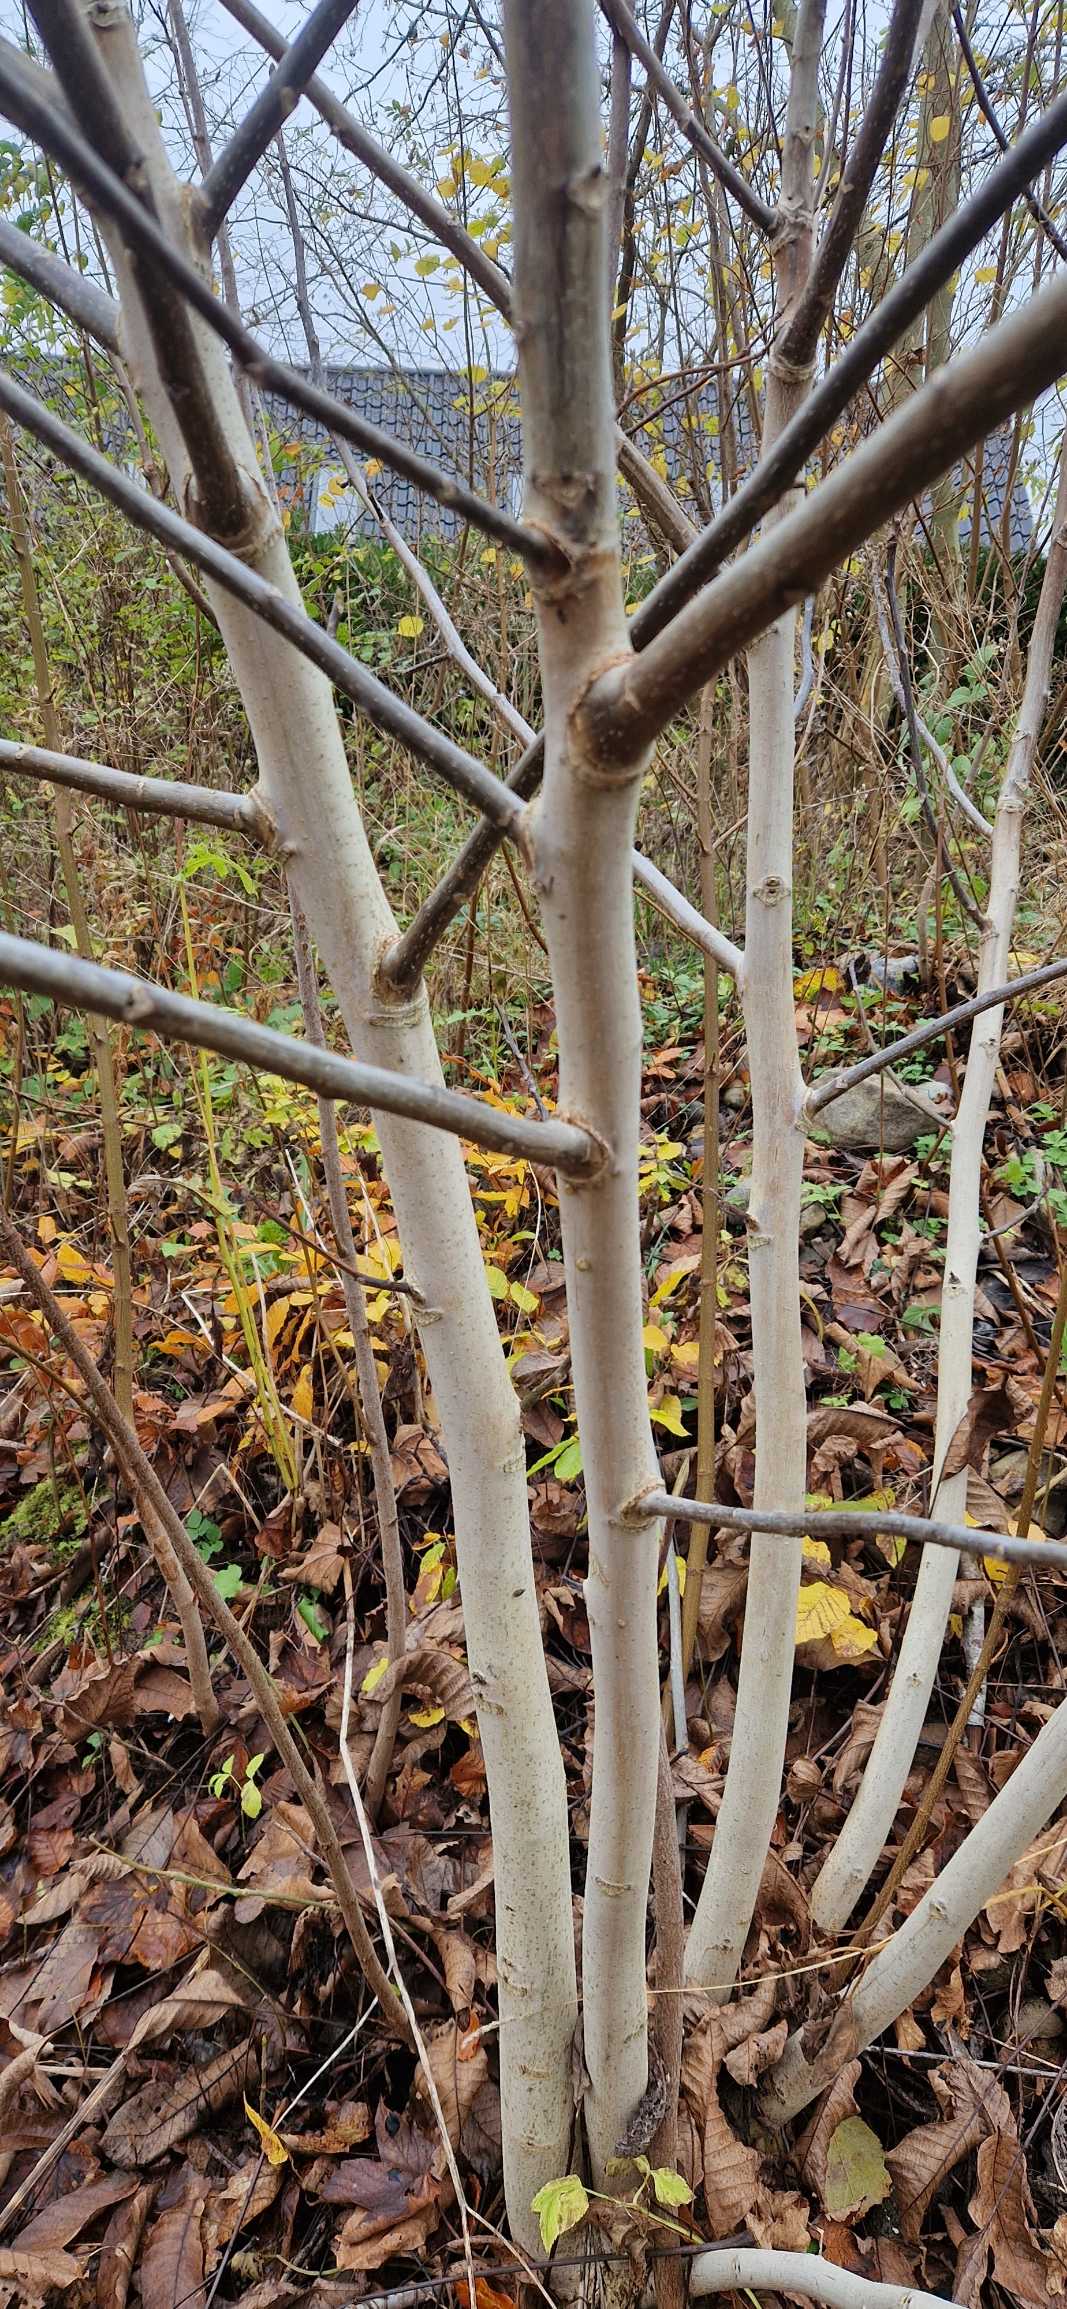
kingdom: Plantae
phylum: Tracheophyta
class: Magnoliopsida
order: Fagales
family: Juglandaceae
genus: Juglans
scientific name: Juglans regia
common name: Almindelig valnød
